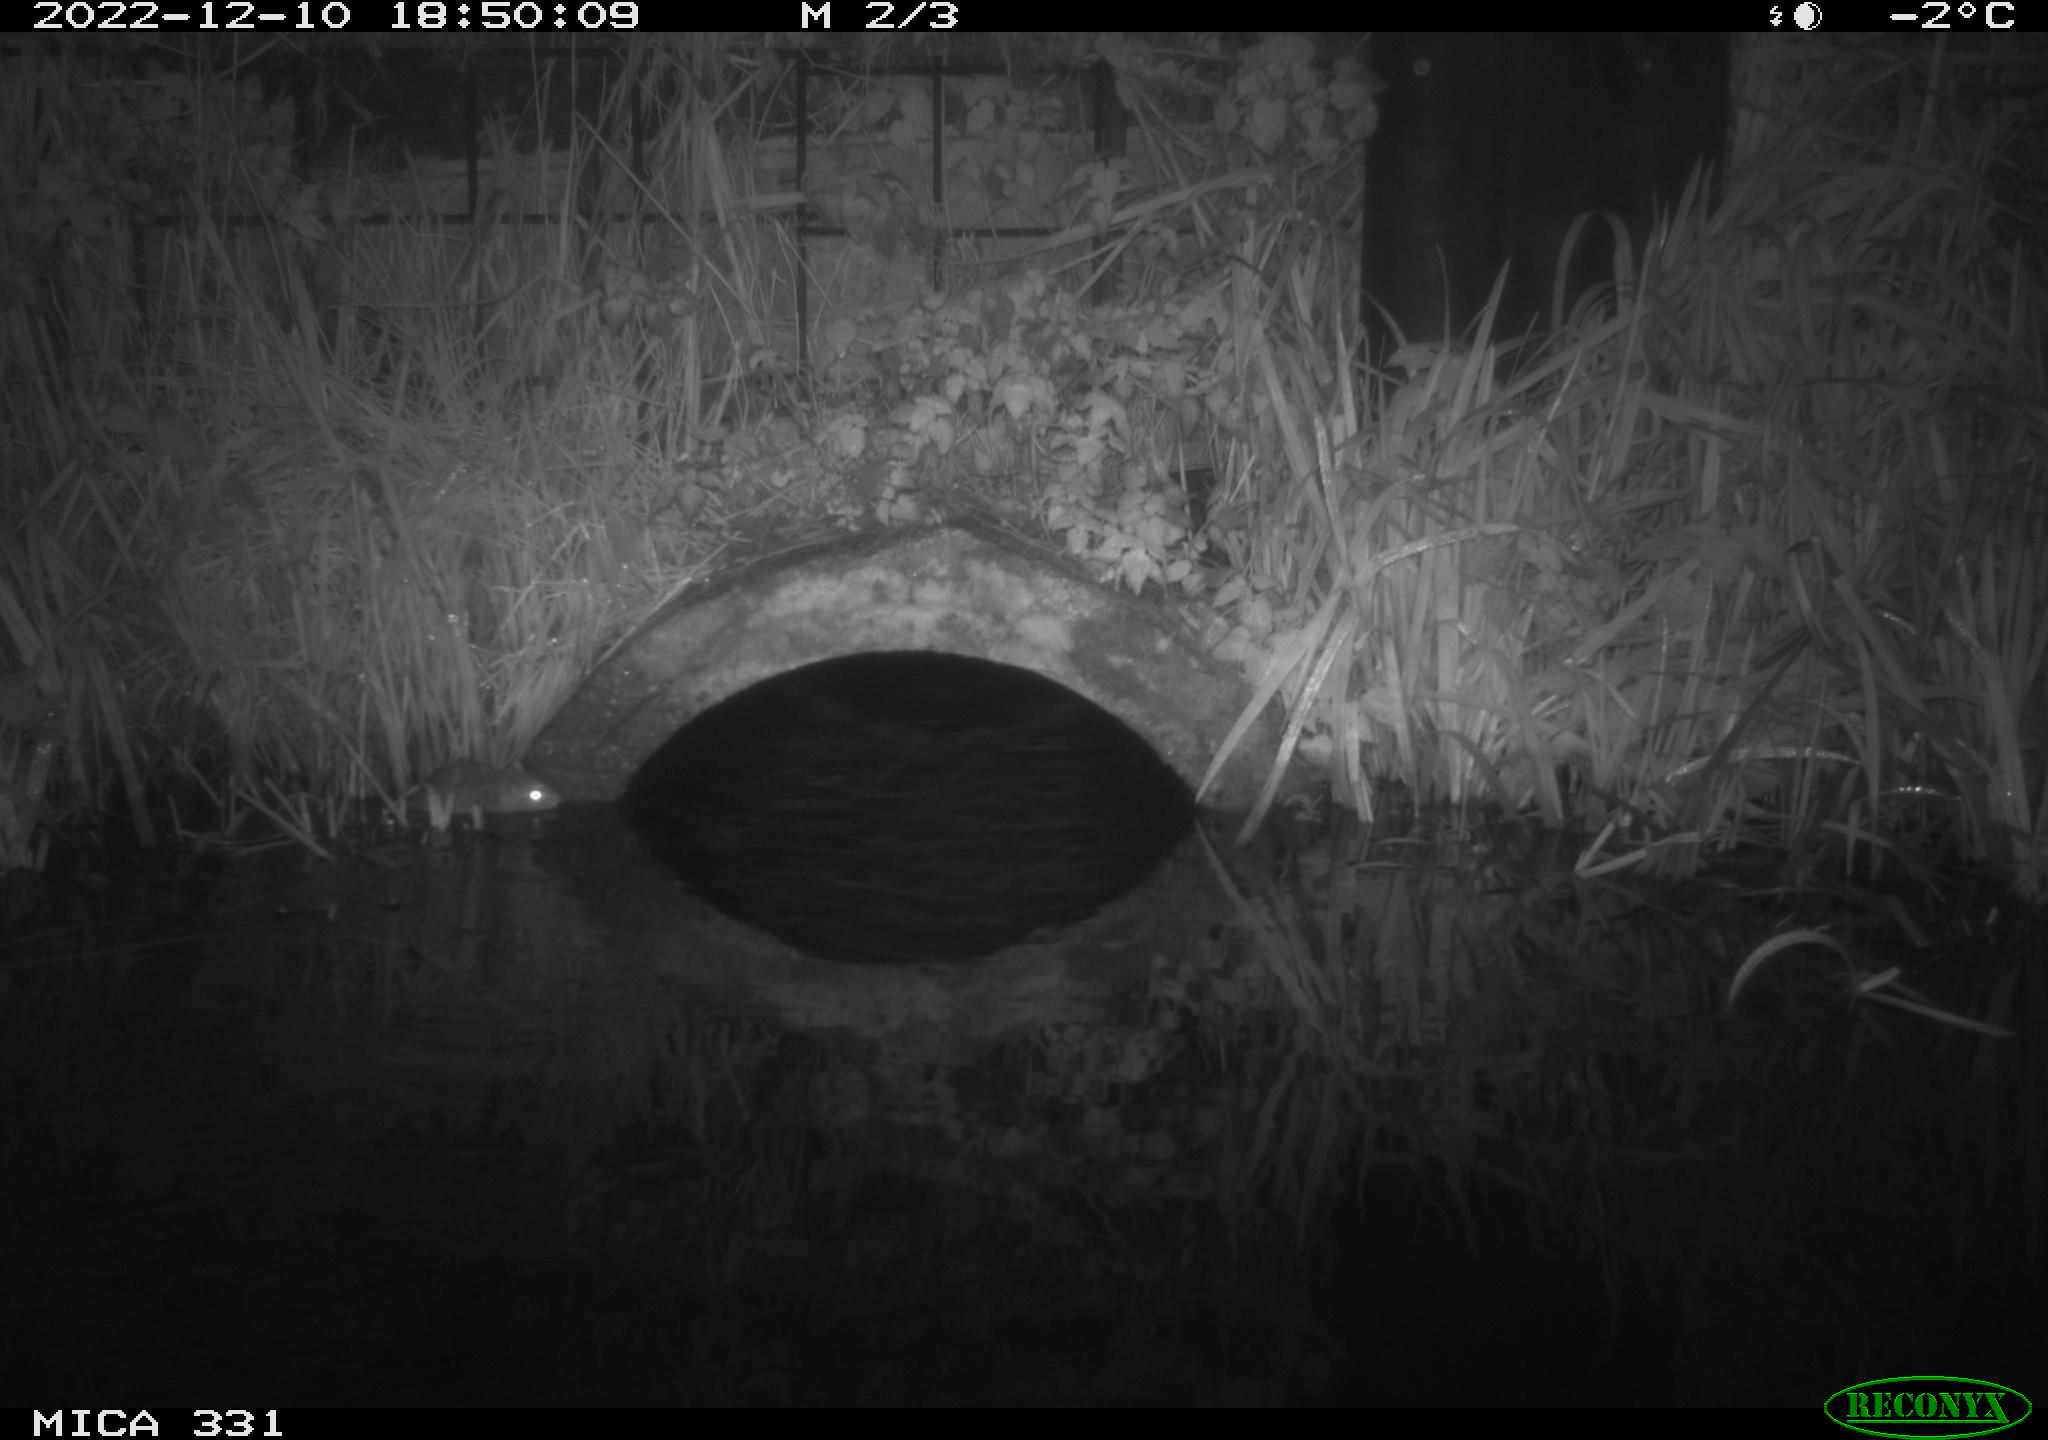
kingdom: Animalia
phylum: Chordata
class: Mammalia
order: Rodentia
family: Muridae
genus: Rattus
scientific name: Rattus norvegicus
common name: Brown rat
